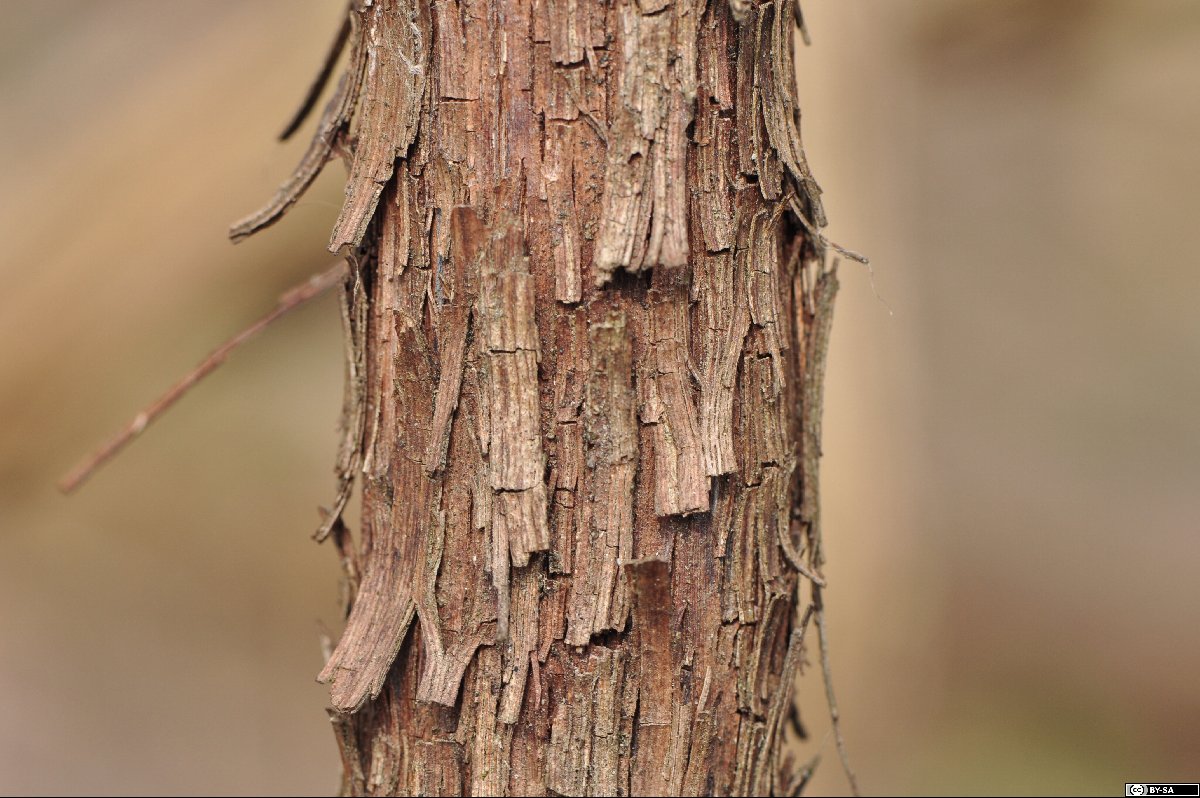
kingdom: Plantae
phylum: Tracheophyta
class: Magnoliopsida
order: Vitales
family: Vitaceae
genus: Vitis
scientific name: Vitis gmelinii
